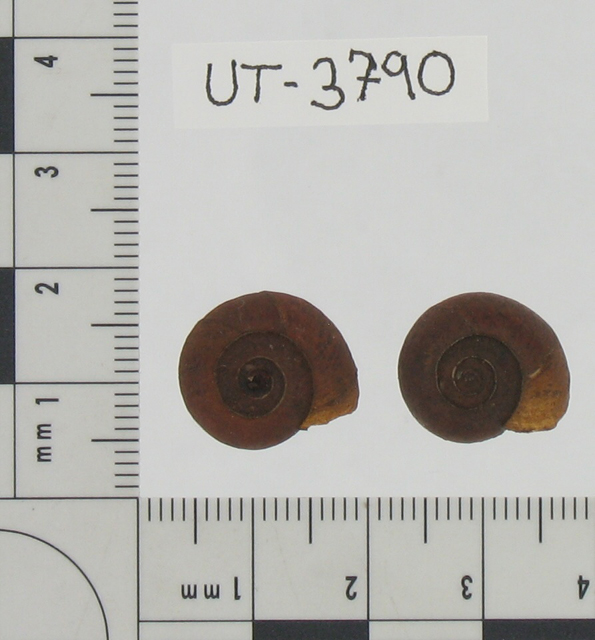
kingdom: Animalia
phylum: Mollusca
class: Gastropoda
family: Planorbidae
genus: Planorbis
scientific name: Planorbis umbilicatus
